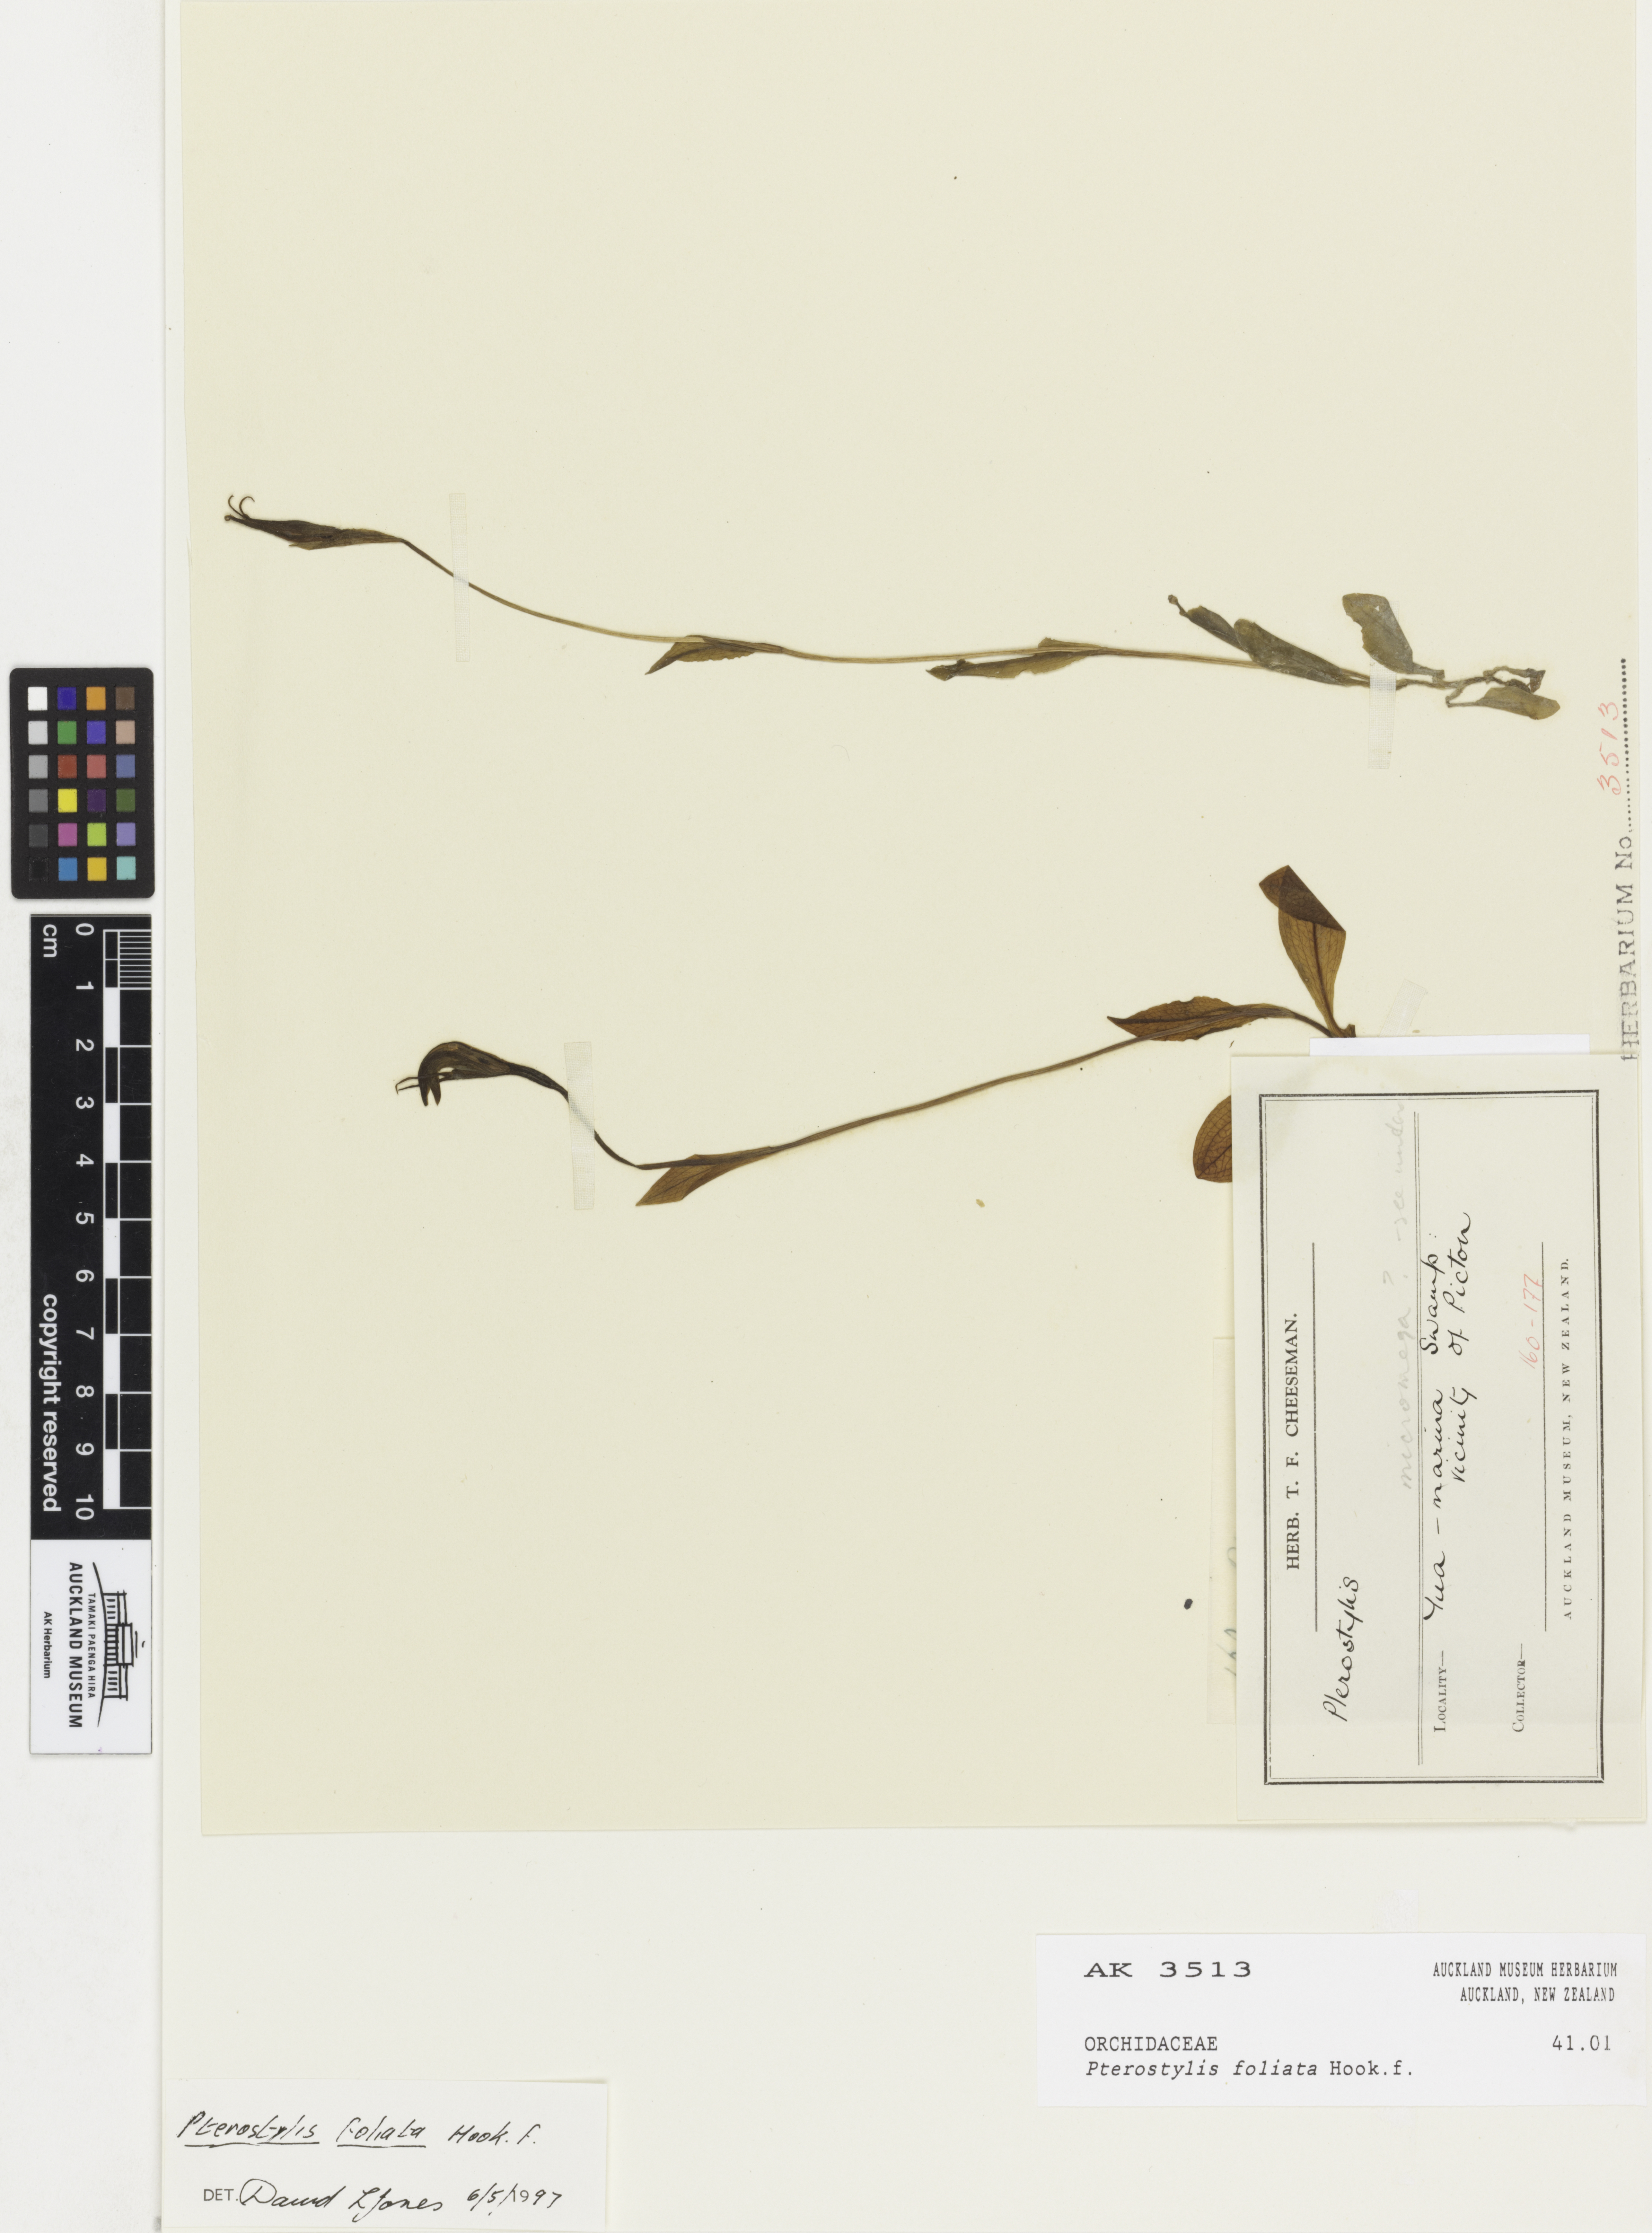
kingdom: Plantae
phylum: Tracheophyta
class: Liliopsida
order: Asparagales
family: Orchidaceae
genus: Pterostylis
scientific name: Pterostylis foliata
